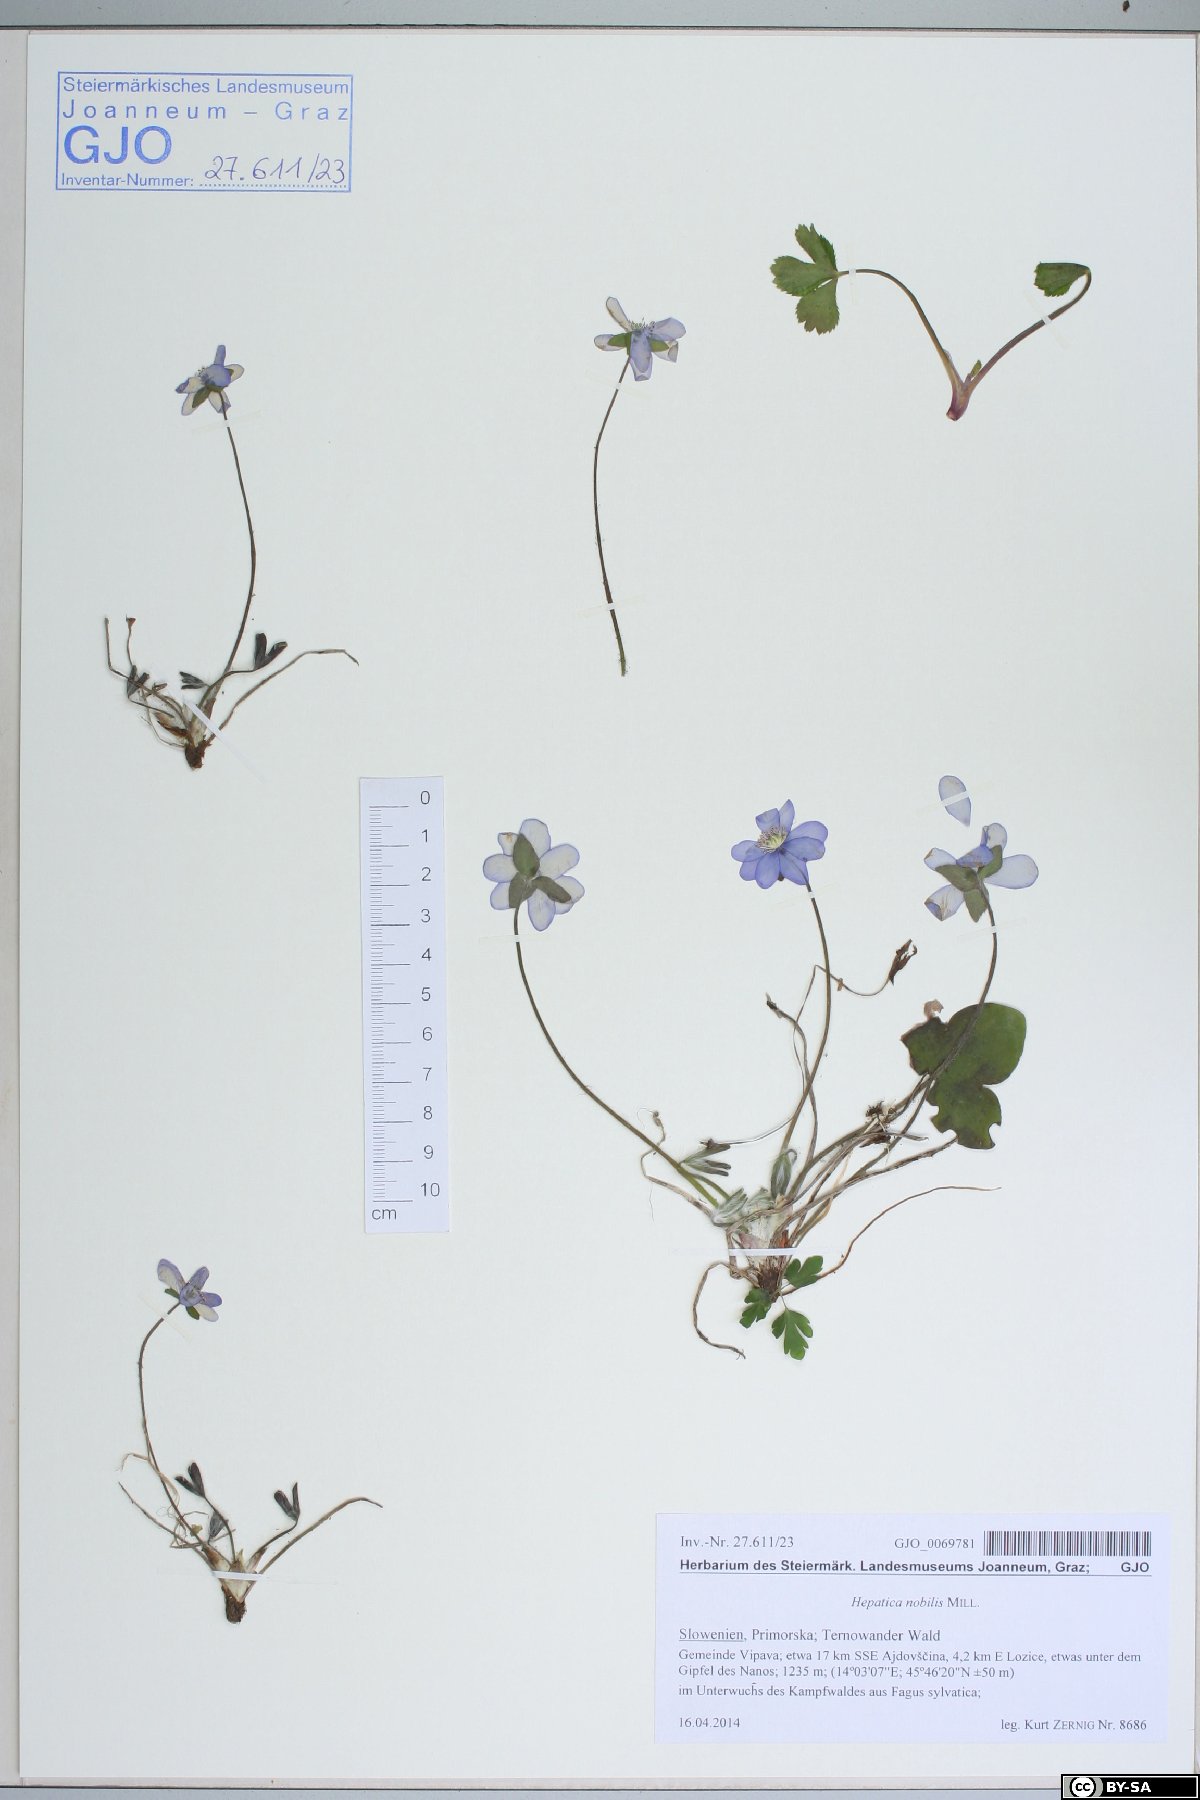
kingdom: Plantae
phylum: Tracheophyta
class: Magnoliopsida
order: Ranunculales
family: Ranunculaceae
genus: Hepatica
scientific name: Hepatica nobilis
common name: Liverleaf
